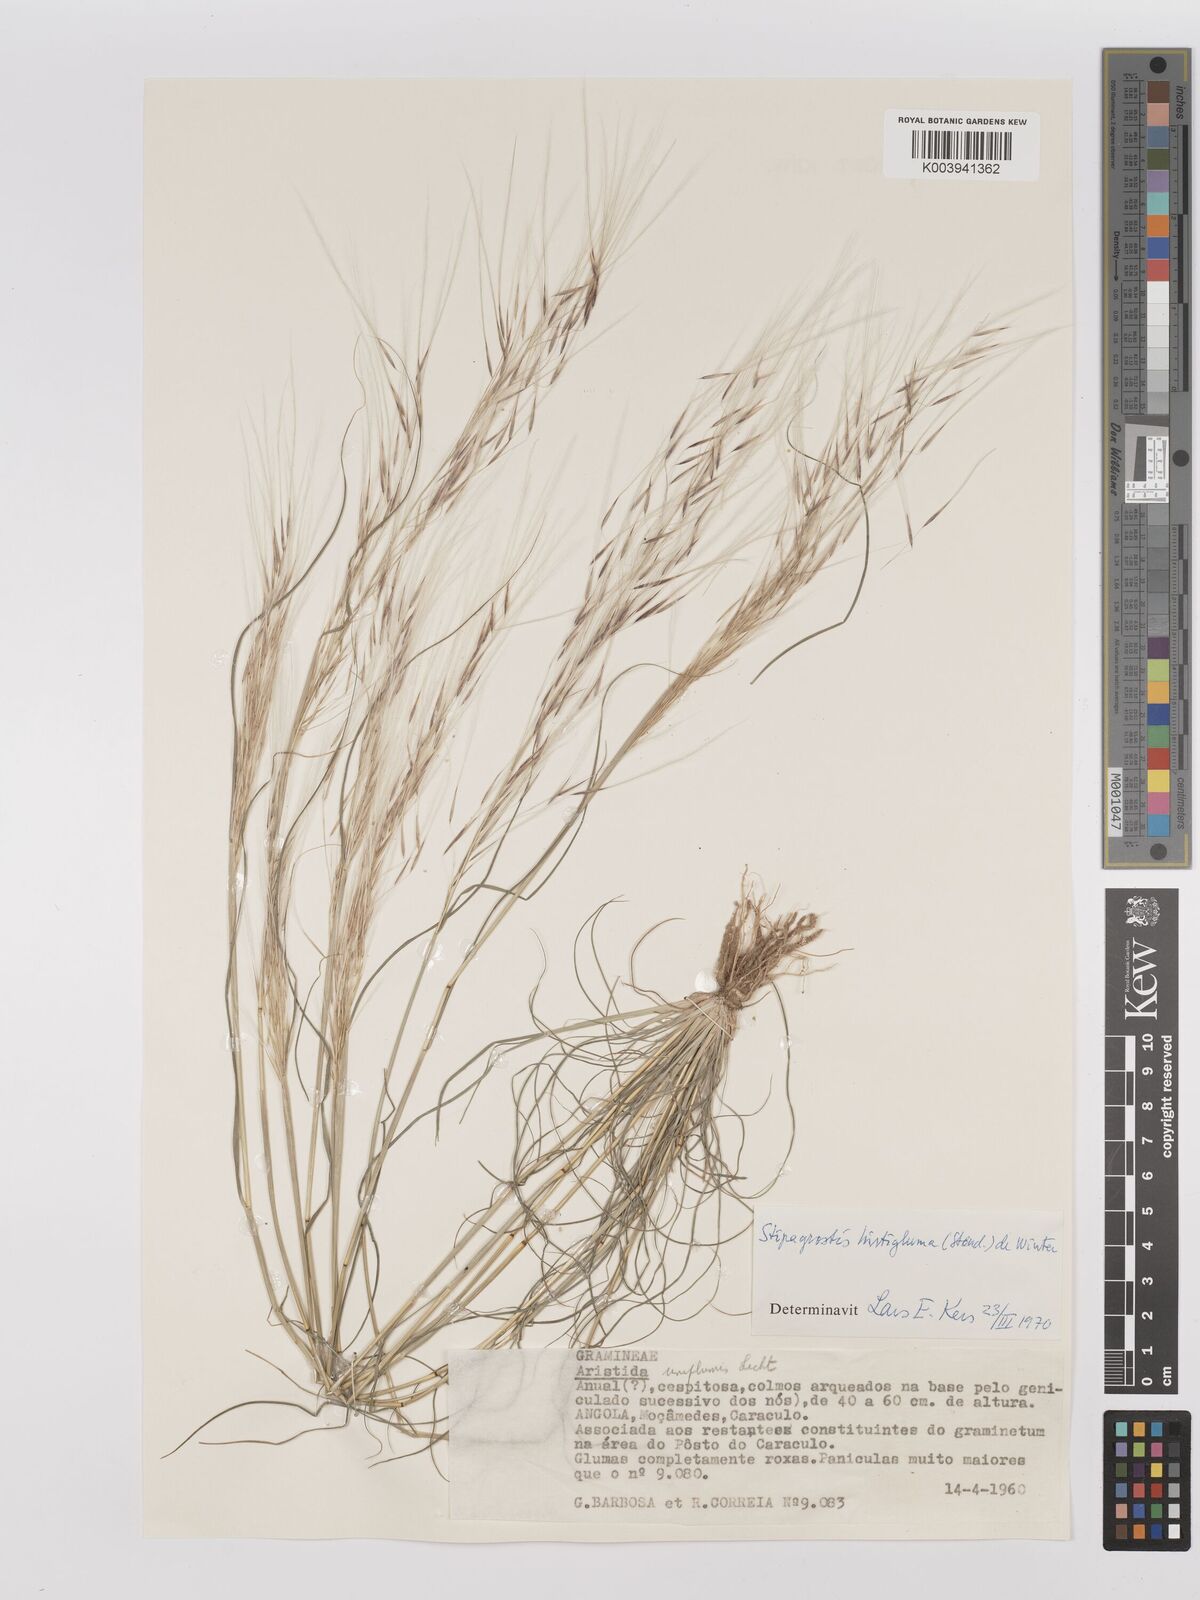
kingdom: Plantae
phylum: Tracheophyta
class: Liliopsida
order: Poales
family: Poaceae
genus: Stipagrostis
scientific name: Stipagrostis hirtigluma
